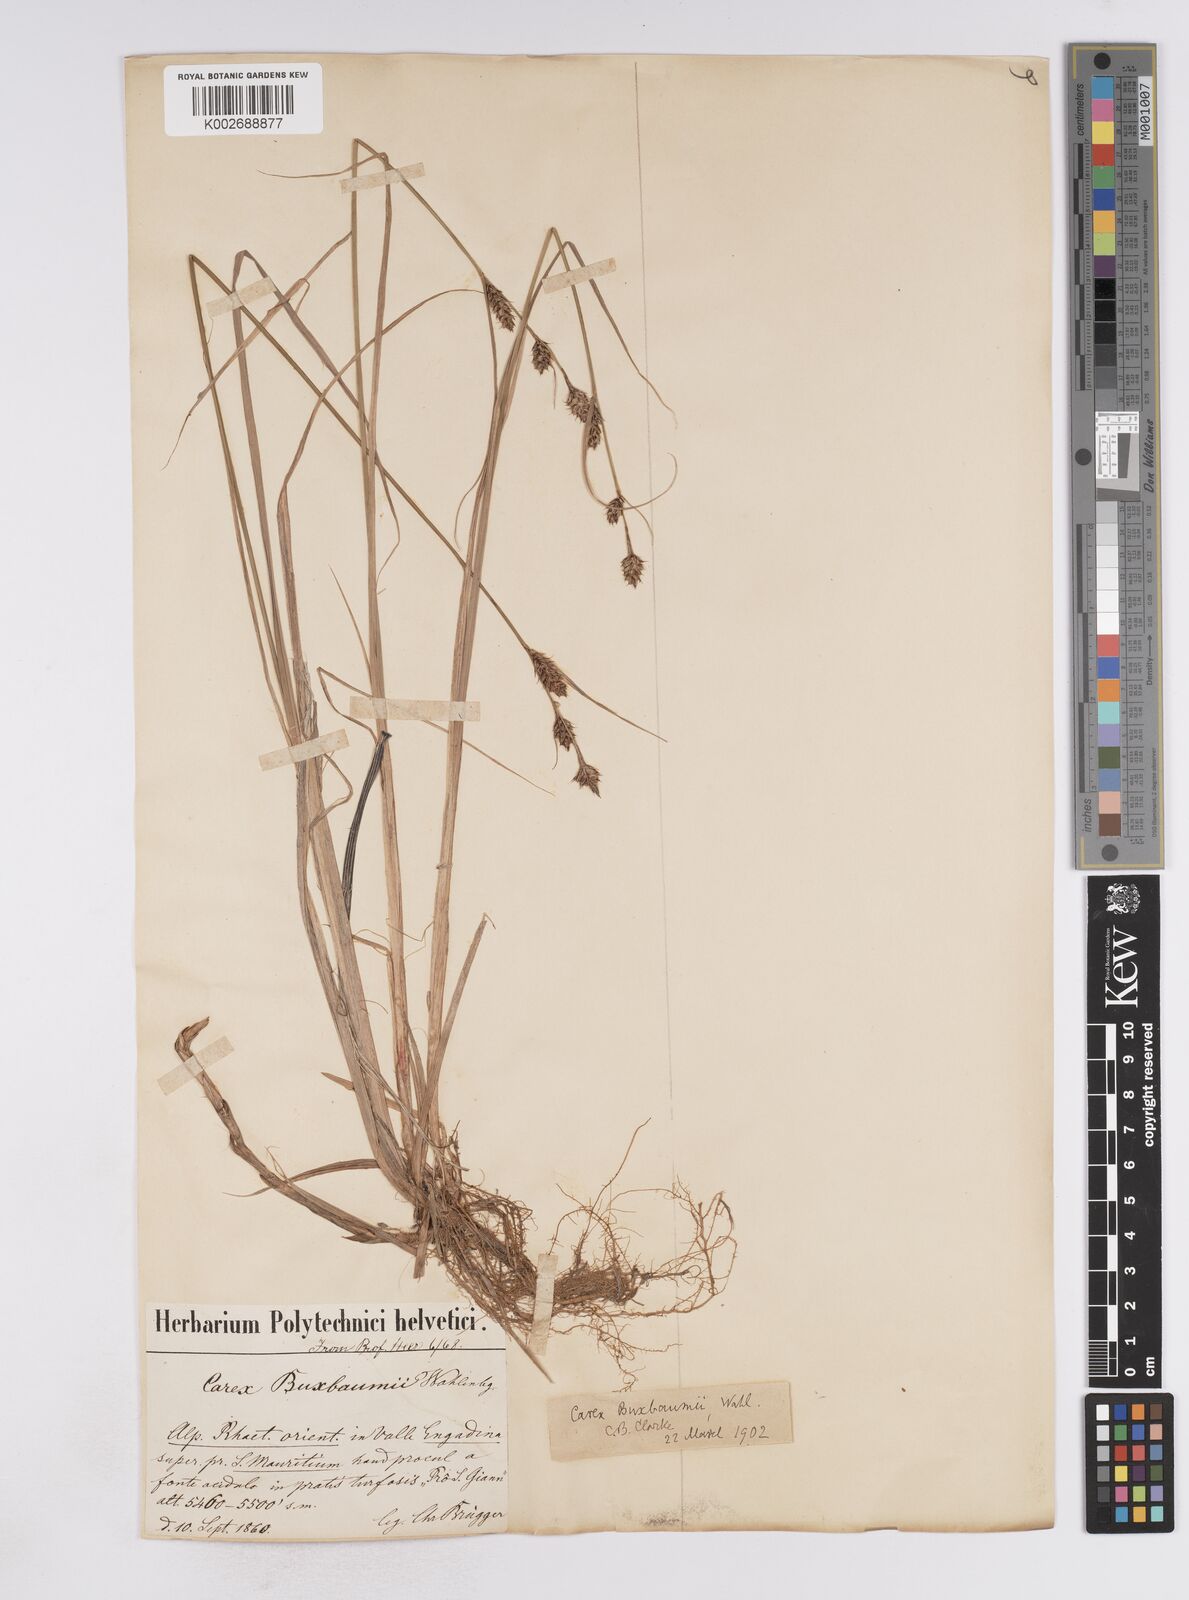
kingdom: Plantae
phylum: Tracheophyta
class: Liliopsida
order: Poales
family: Cyperaceae
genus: Carex
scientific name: Carex buxbaumii
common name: Club sedge
